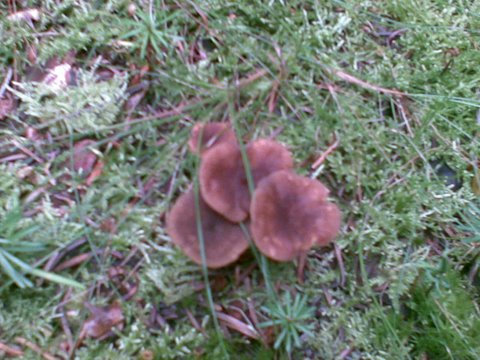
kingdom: Fungi
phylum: Basidiomycota
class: Agaricomycetes
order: Cantharellales
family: Hydnaceae
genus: Craterellus
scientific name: Craterellus tubaeformis
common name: tragt-kantarel
